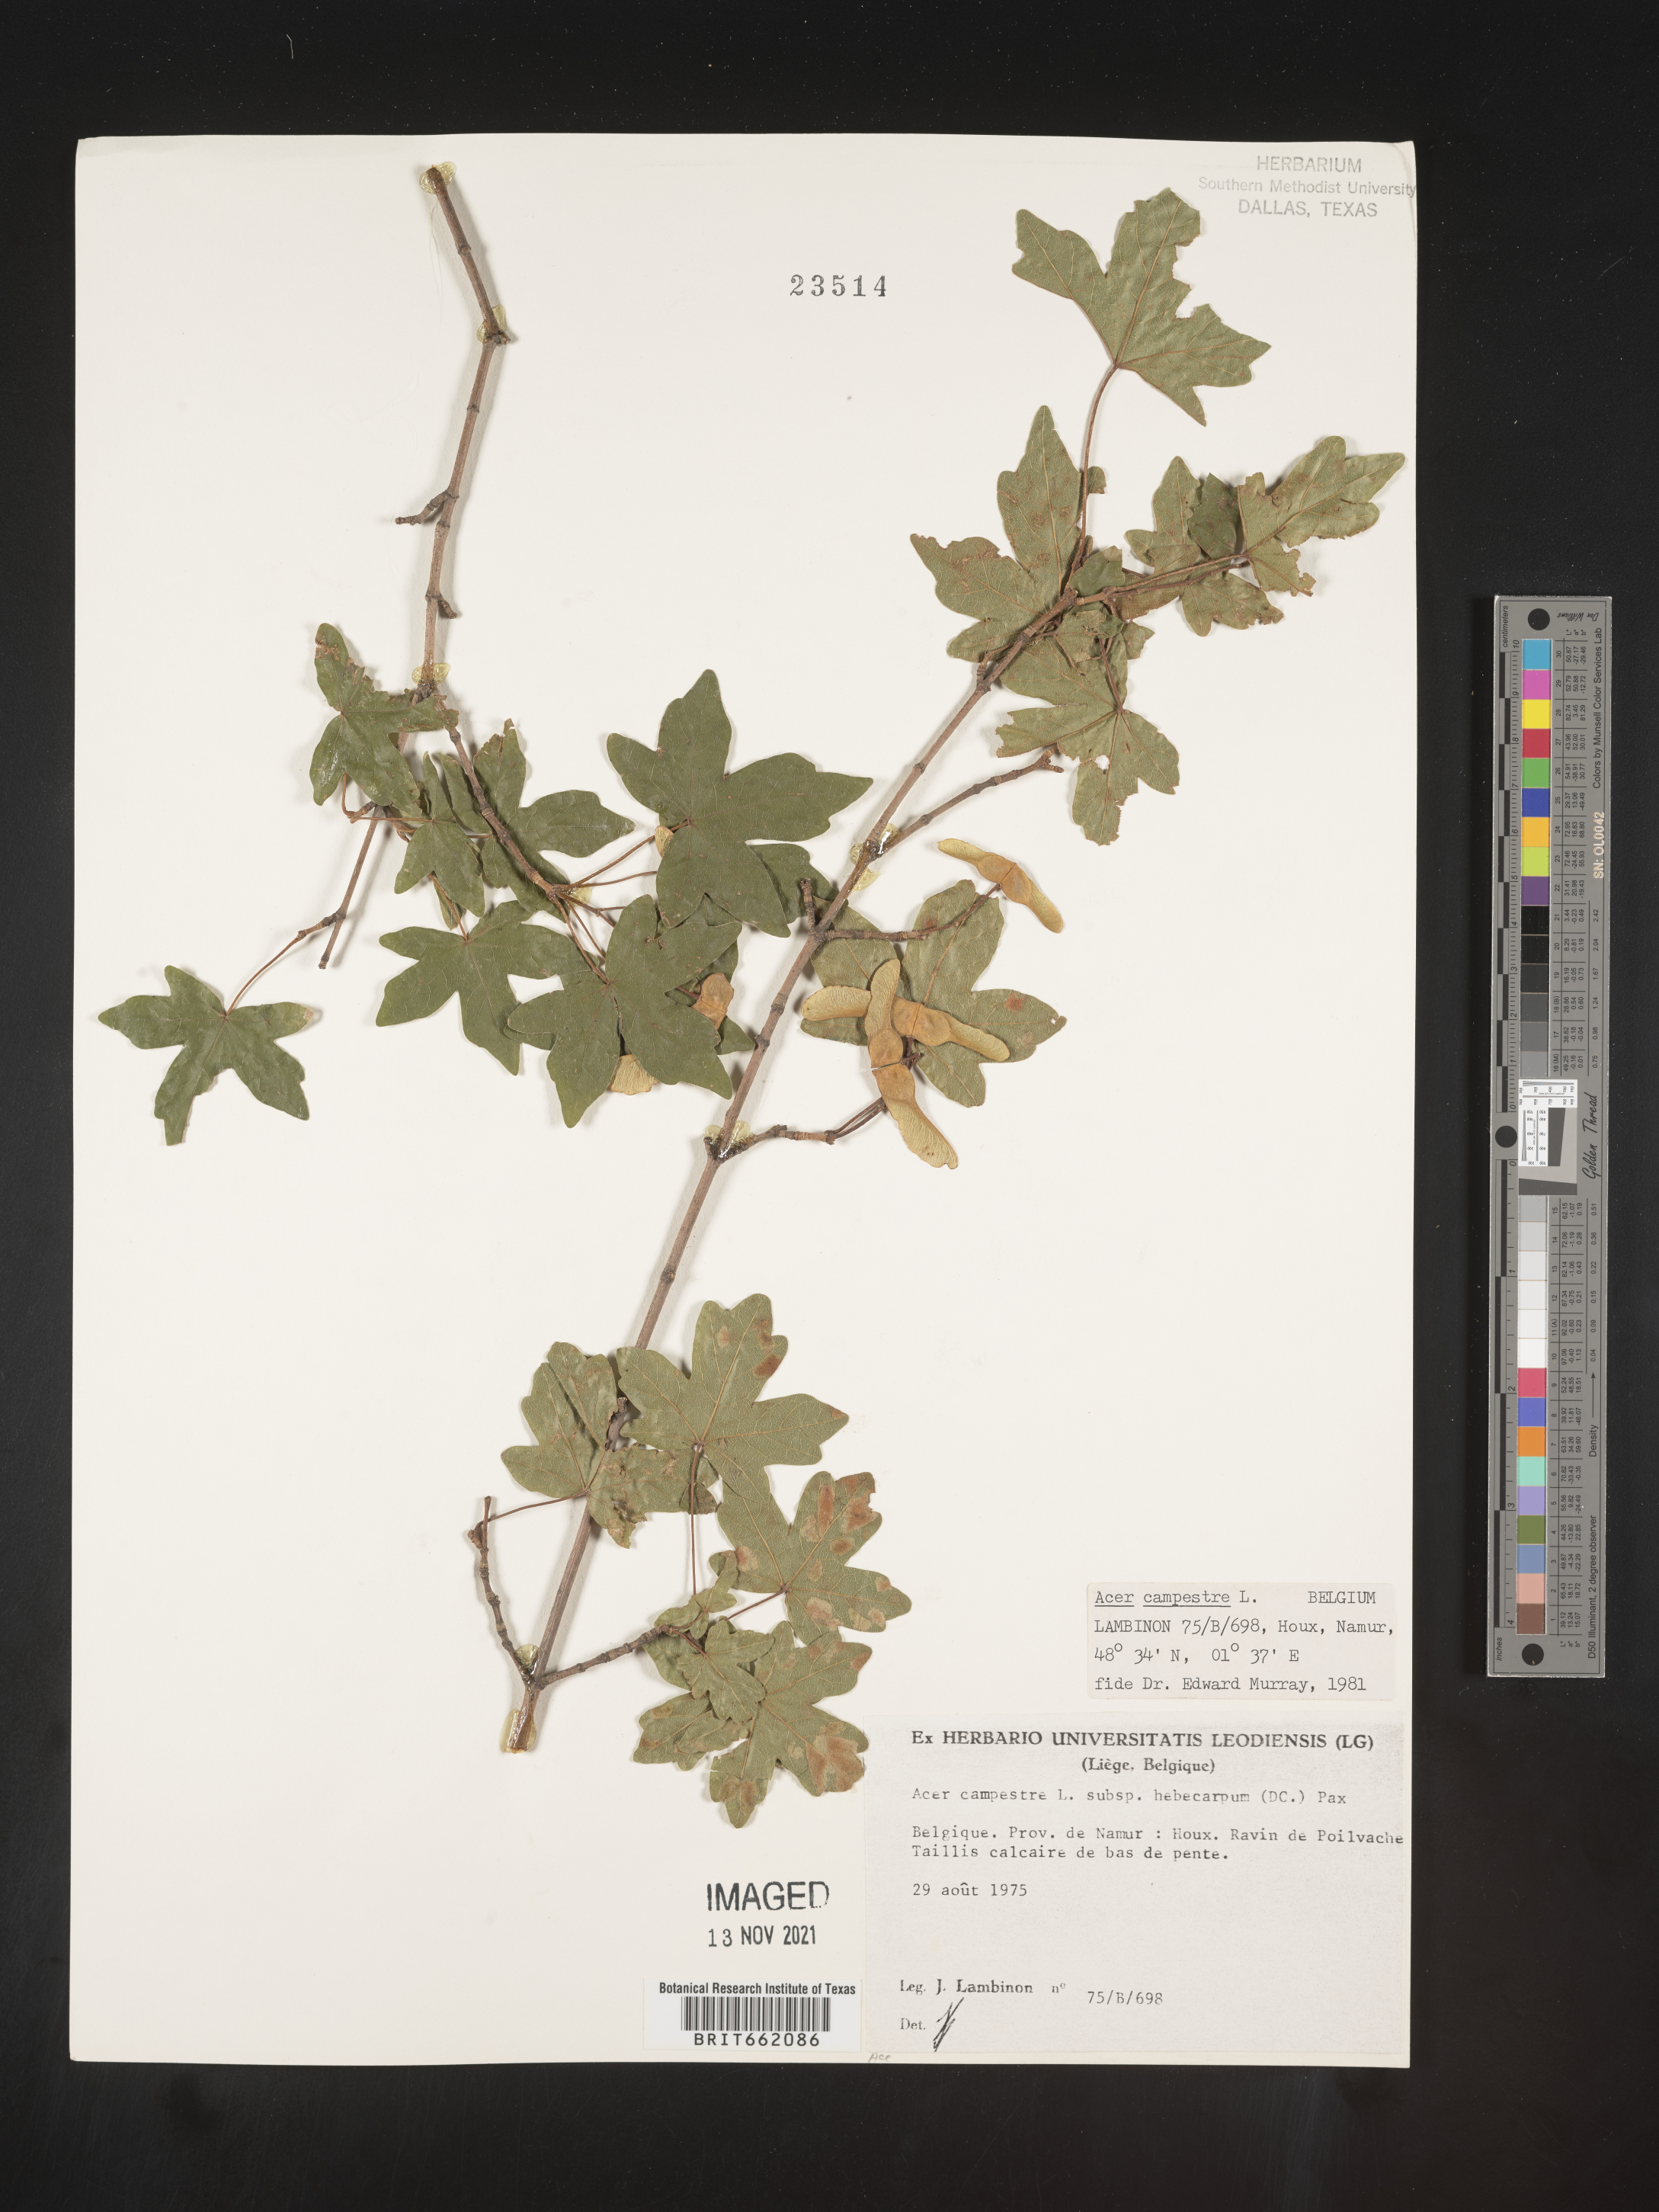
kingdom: Plantae
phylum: Tracheophyta
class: Magnoliopsida
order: Sapindales
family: Sapindaceae
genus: Acer
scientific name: Acer
